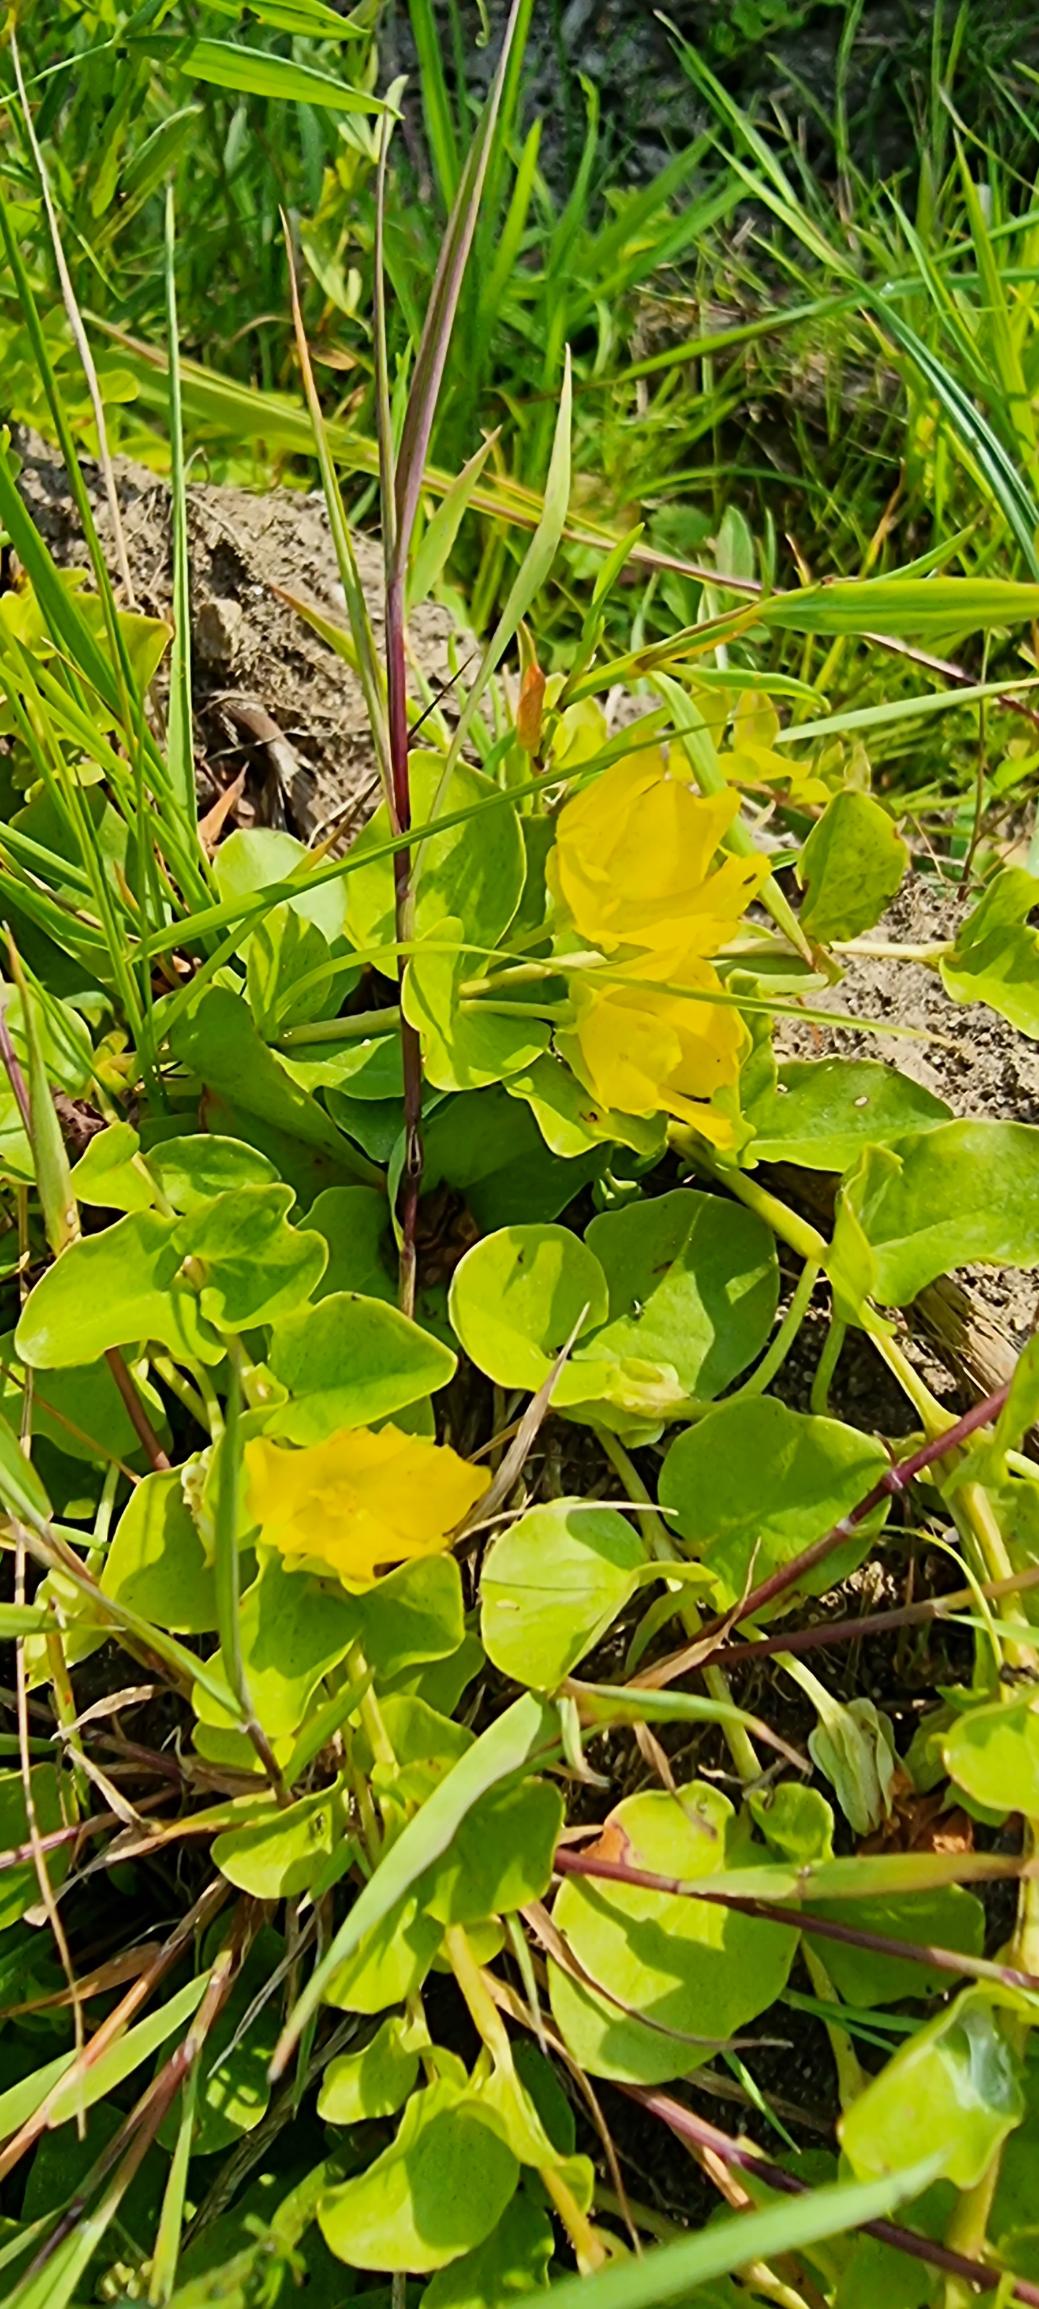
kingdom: Plantae
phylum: Tracheophyta
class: Magnoliopsida
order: Ericales
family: Primulaceae
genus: Lysimachia
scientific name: Lysimachia nummularia
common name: Pengebladet fredløs
